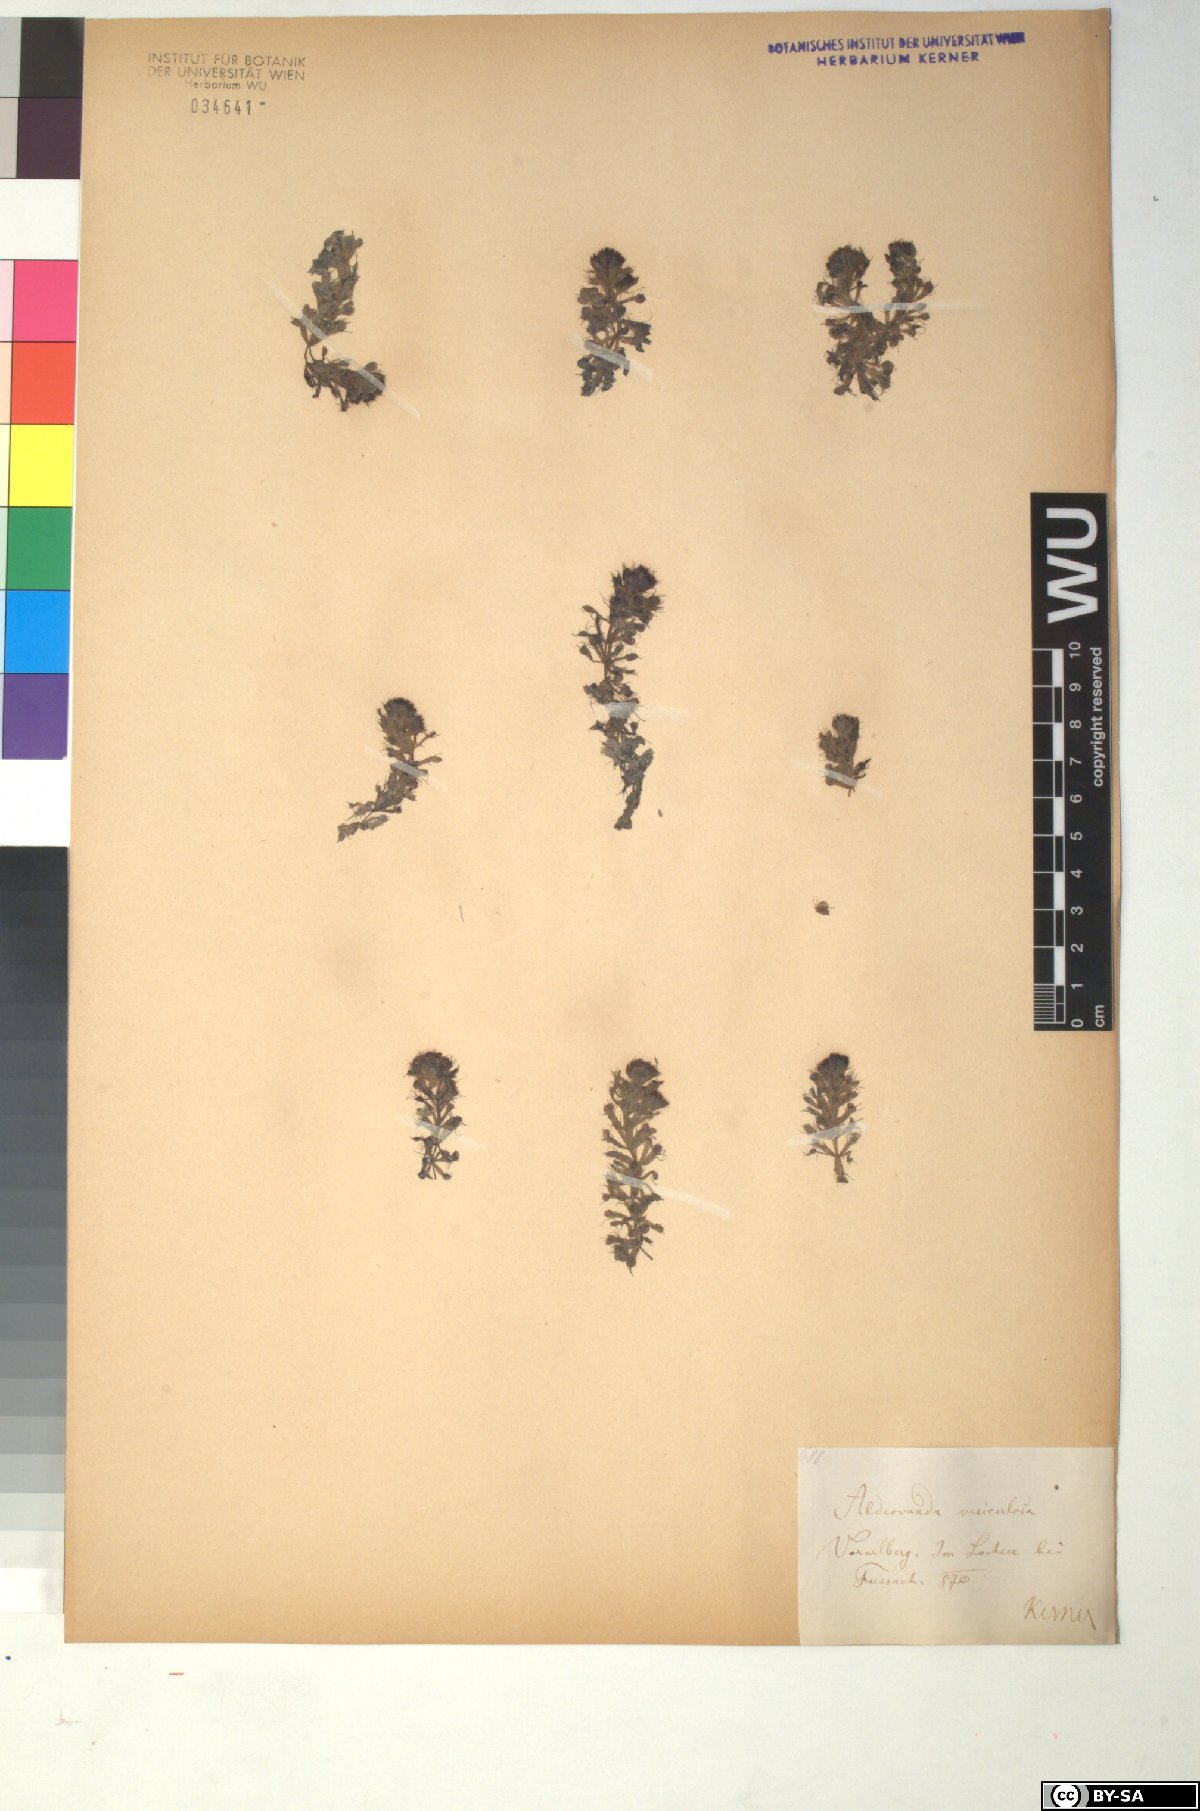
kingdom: Plantae
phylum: Tracheophyta
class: Magnoliopsida
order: Caryophyllales
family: Droseraceae
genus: Aldrovanda
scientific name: Aldrovanda vesiculosa
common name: Waterwheel plant
